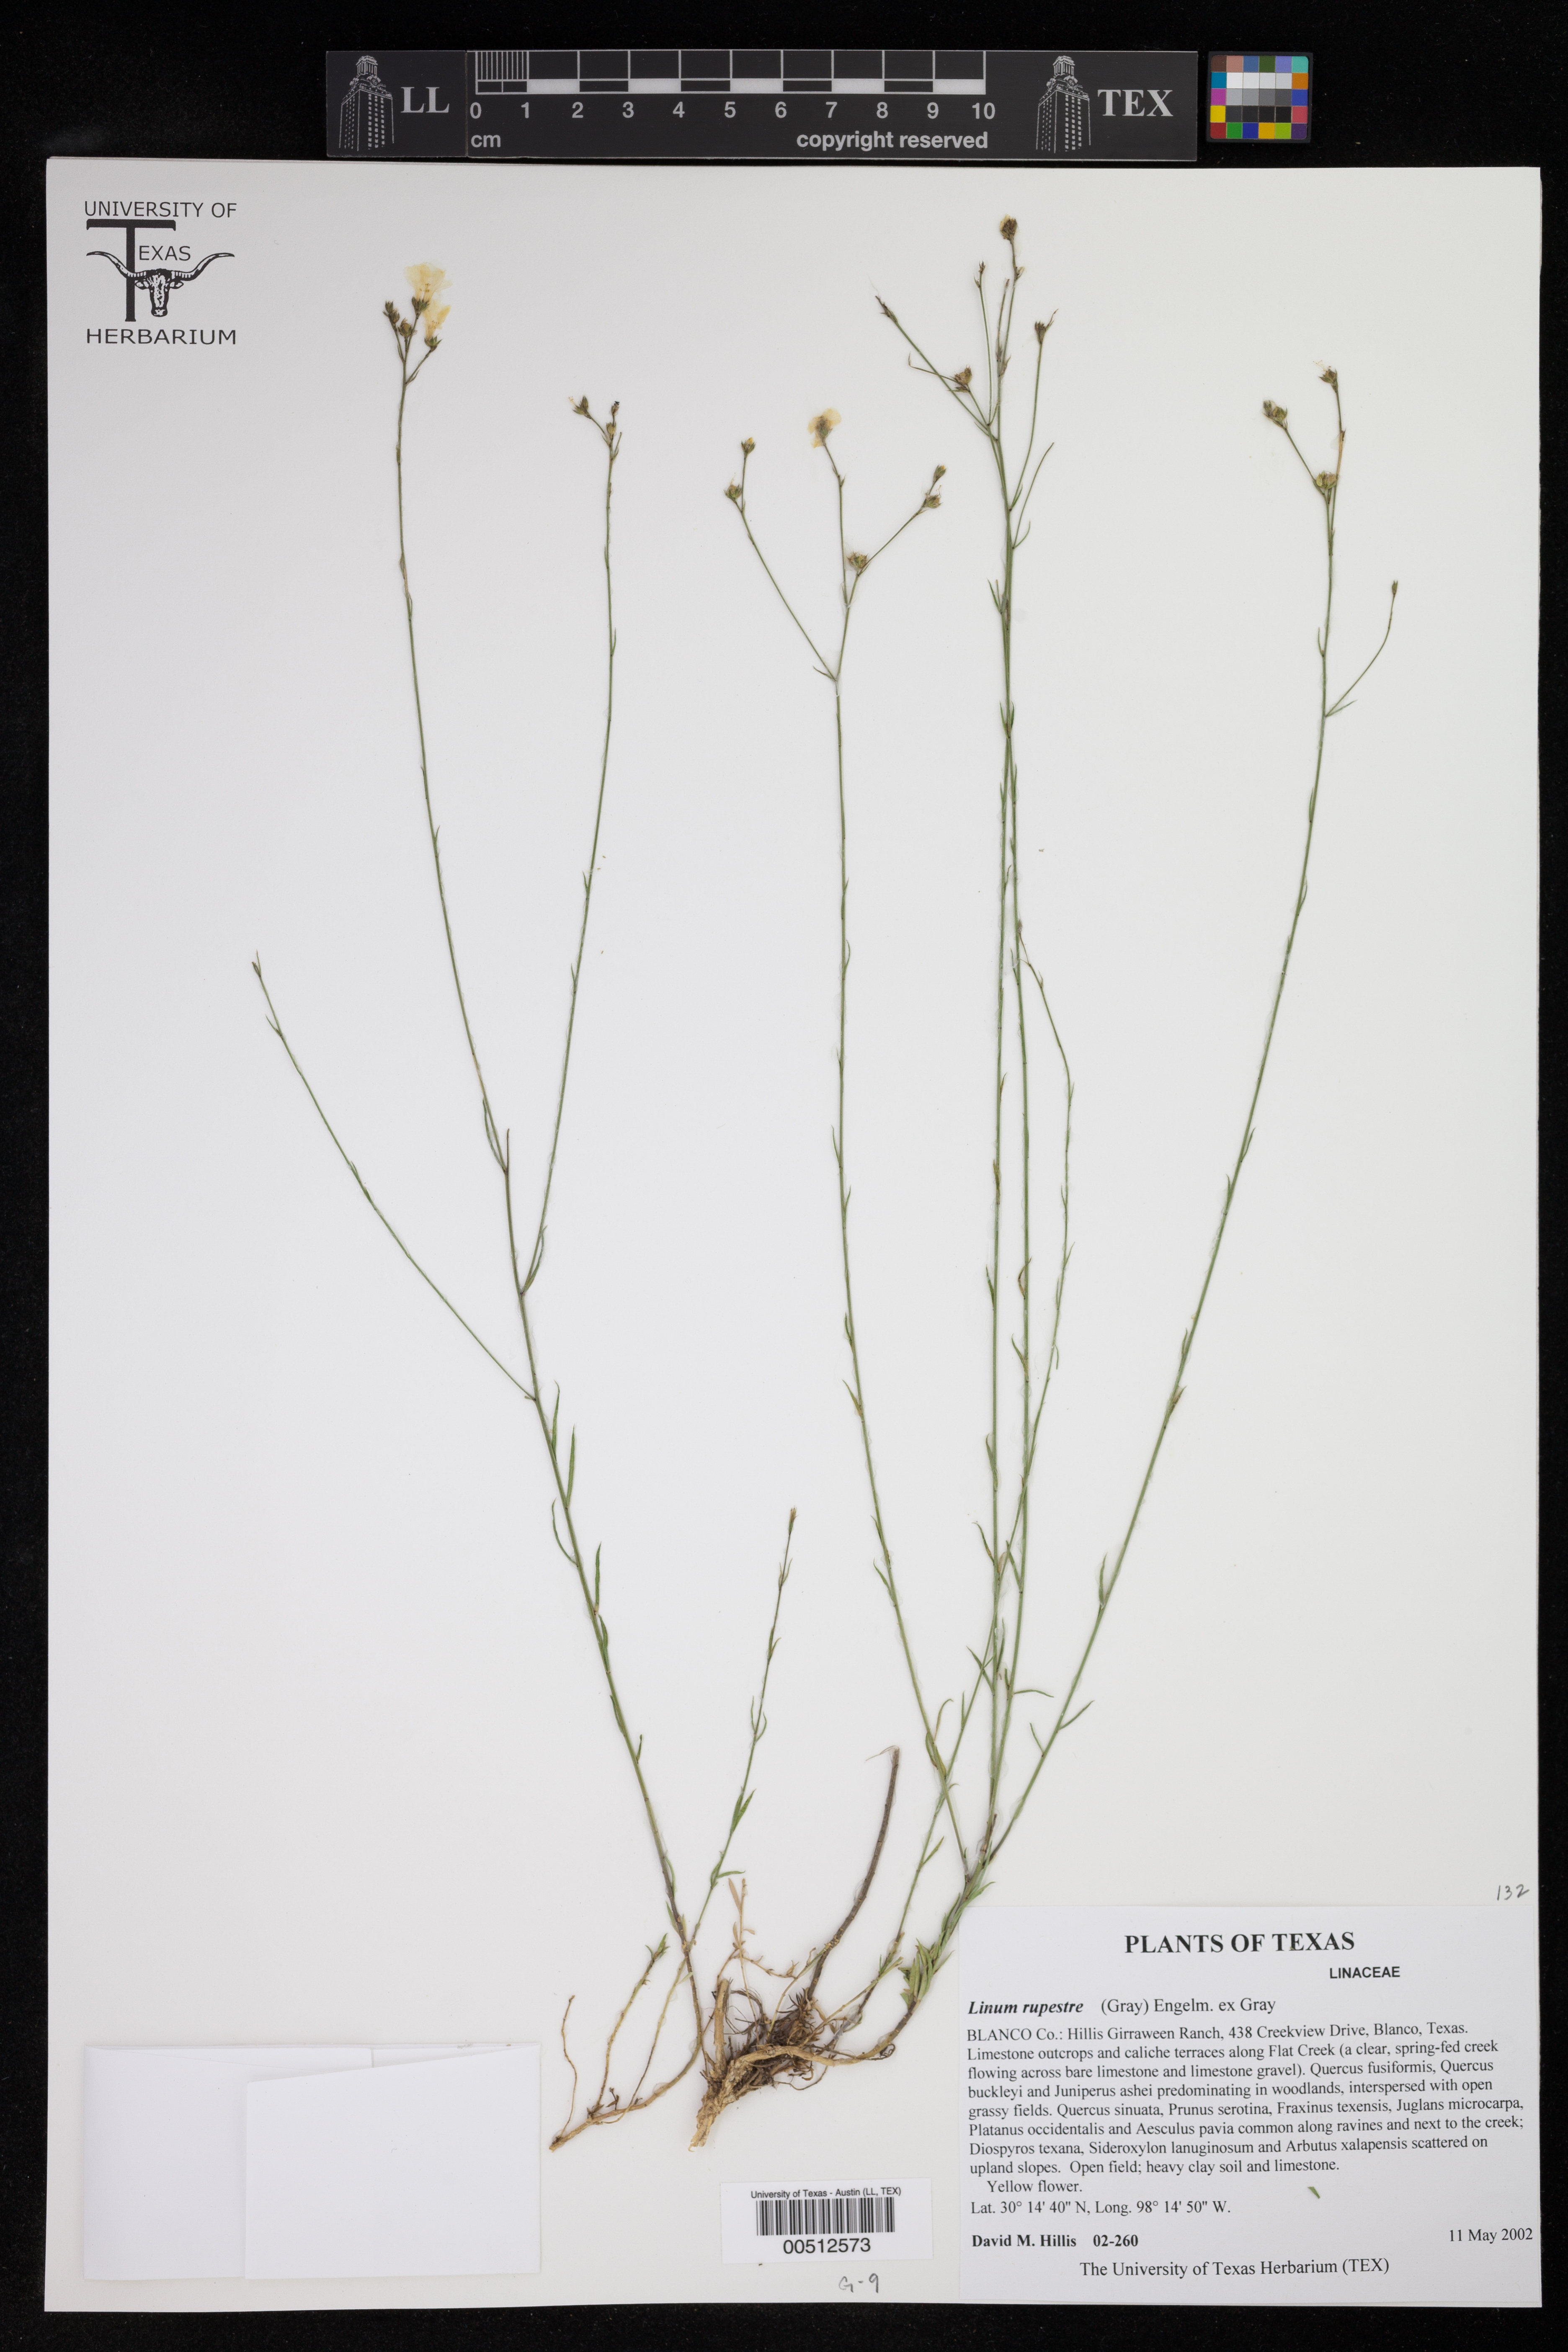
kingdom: Plantae
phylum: Tracheophyta
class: Magnoliopsida
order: Malpighiales
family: Linaceae
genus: Linum
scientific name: Linum rupestre
